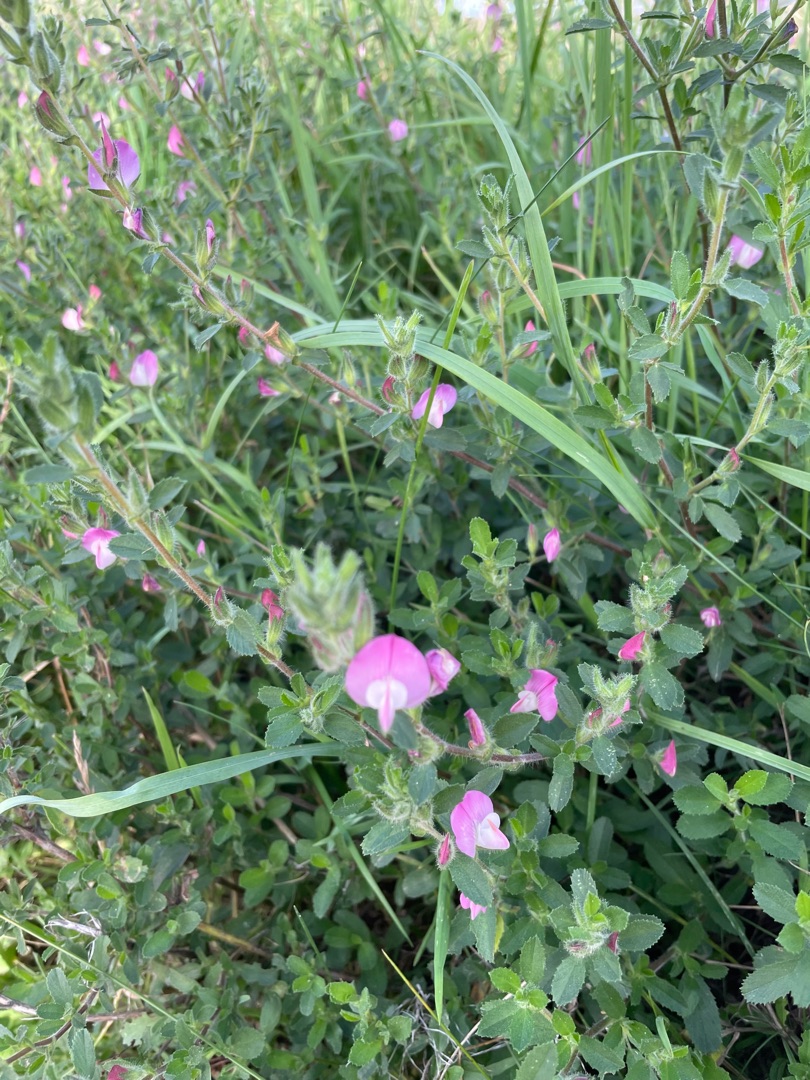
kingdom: Plantae
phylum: Tracheophyta
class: Magnoliopsida
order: Fabales
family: Fabaceae
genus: Ononis
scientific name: Ononis spinosa
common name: Mark-krageklo
